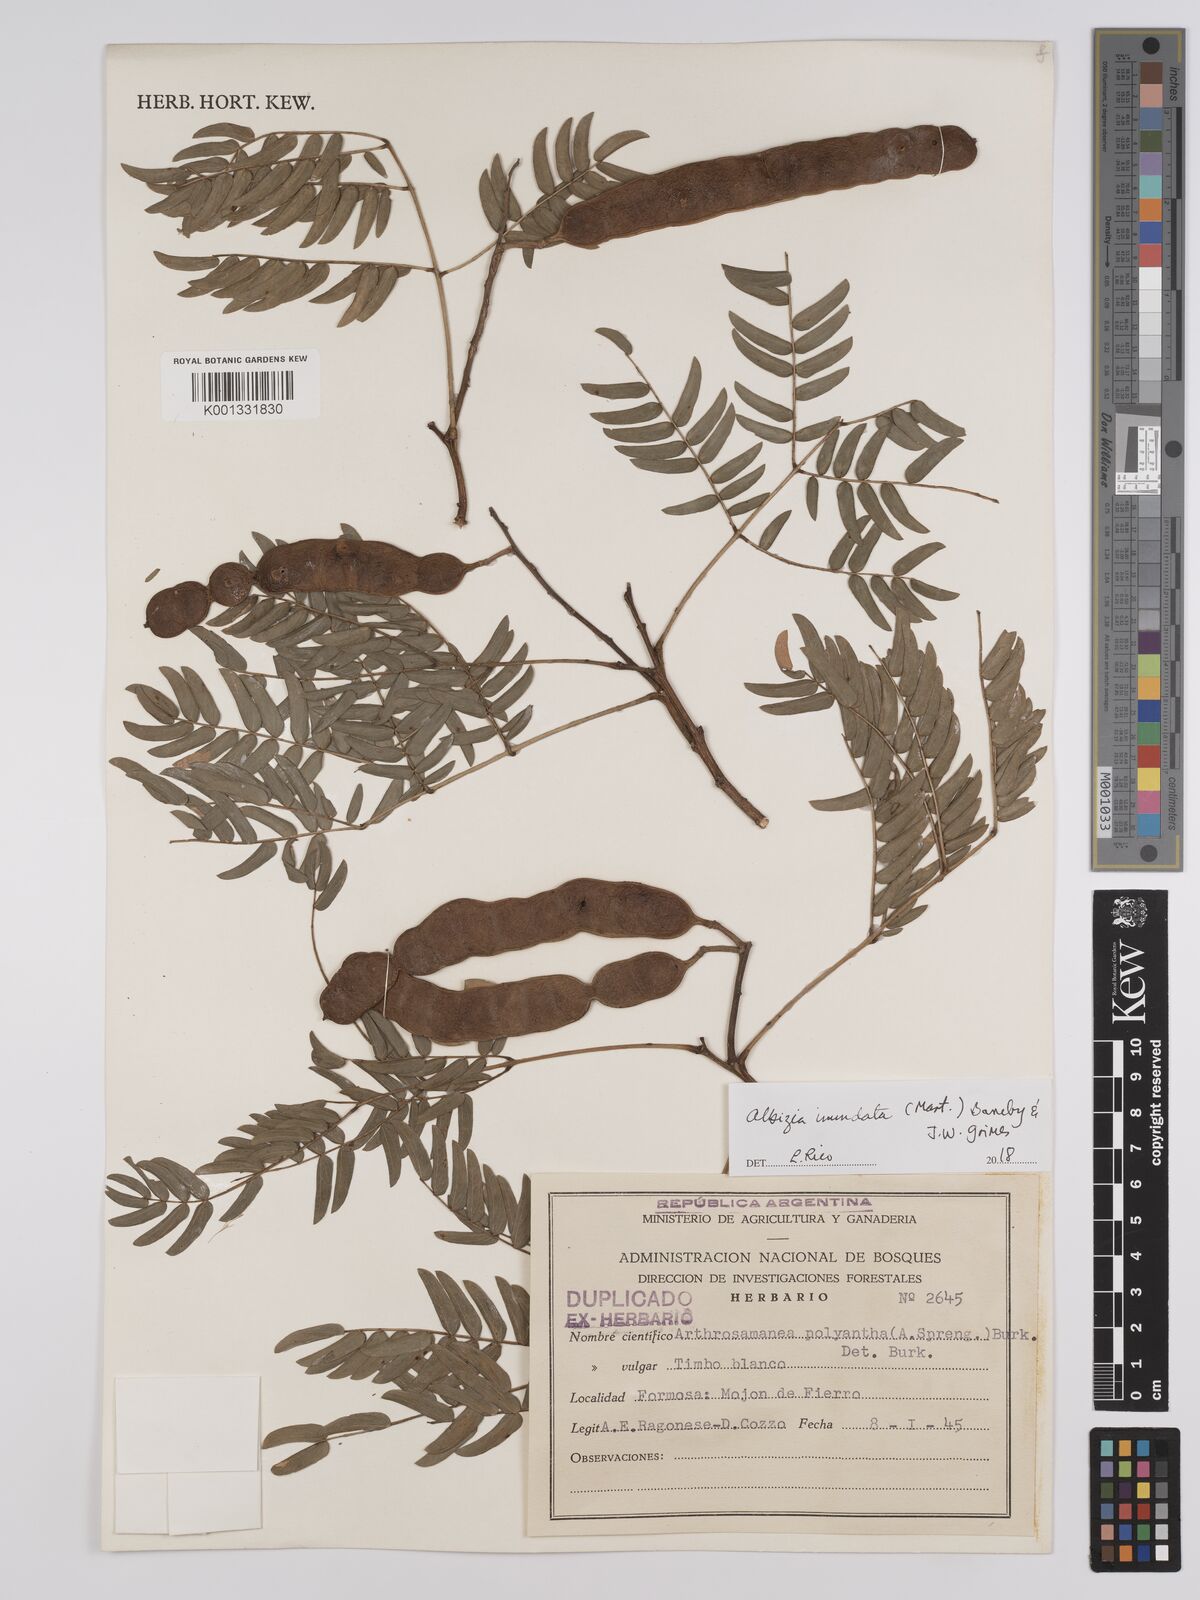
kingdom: Plantae
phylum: Tracheophyta
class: Magnoliopsida
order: Fabales
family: Fabaceae
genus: Albizia
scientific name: Albizia inundata
